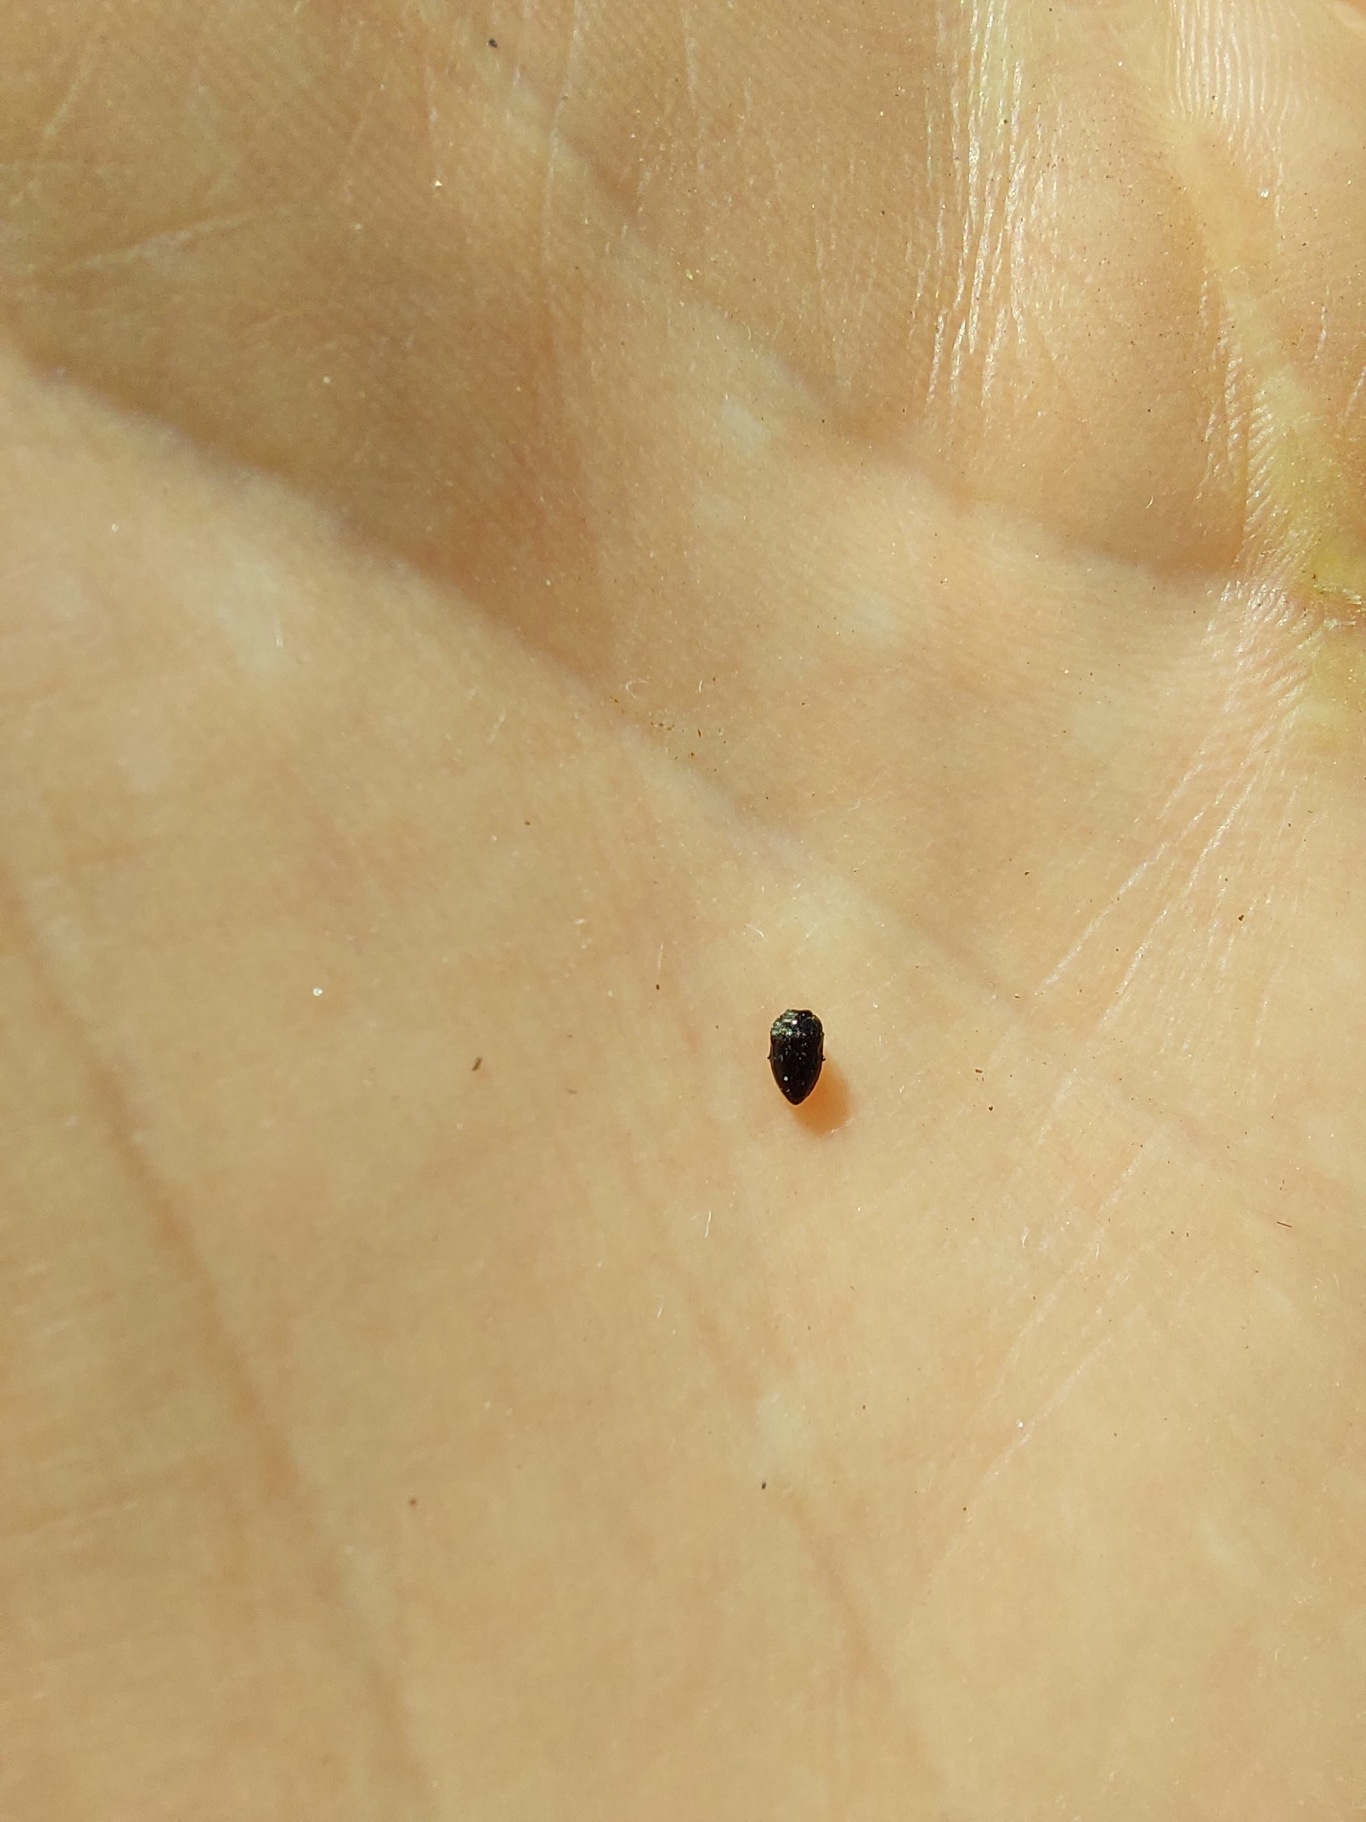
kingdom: Animalia
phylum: Arthropoda
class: Insecta
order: Coleoptera
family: Buprestidae
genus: Habroloma
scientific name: Habroloma nanum
